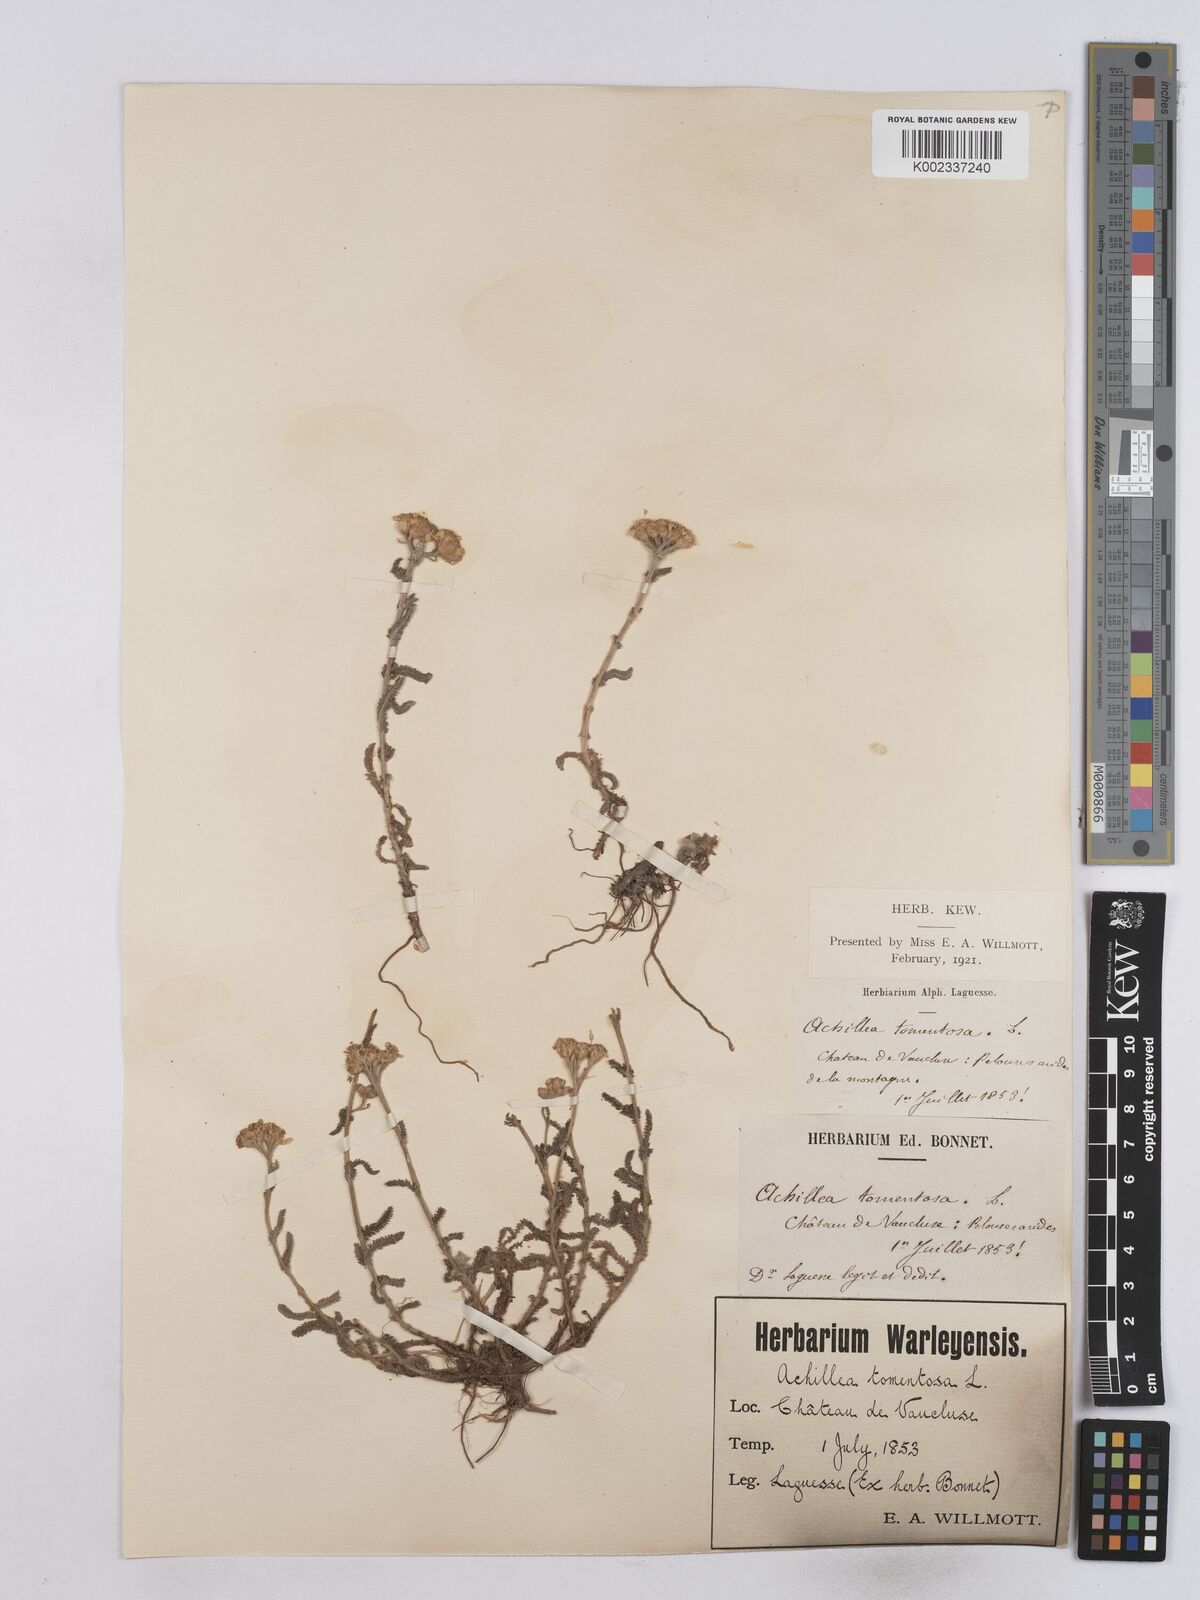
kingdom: Plantae
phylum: Tracheophyta
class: Magnoliopsida
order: Asterales
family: Asteraceae
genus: Achillea
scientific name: Achillea tomentosa
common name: Yellow milfoil
